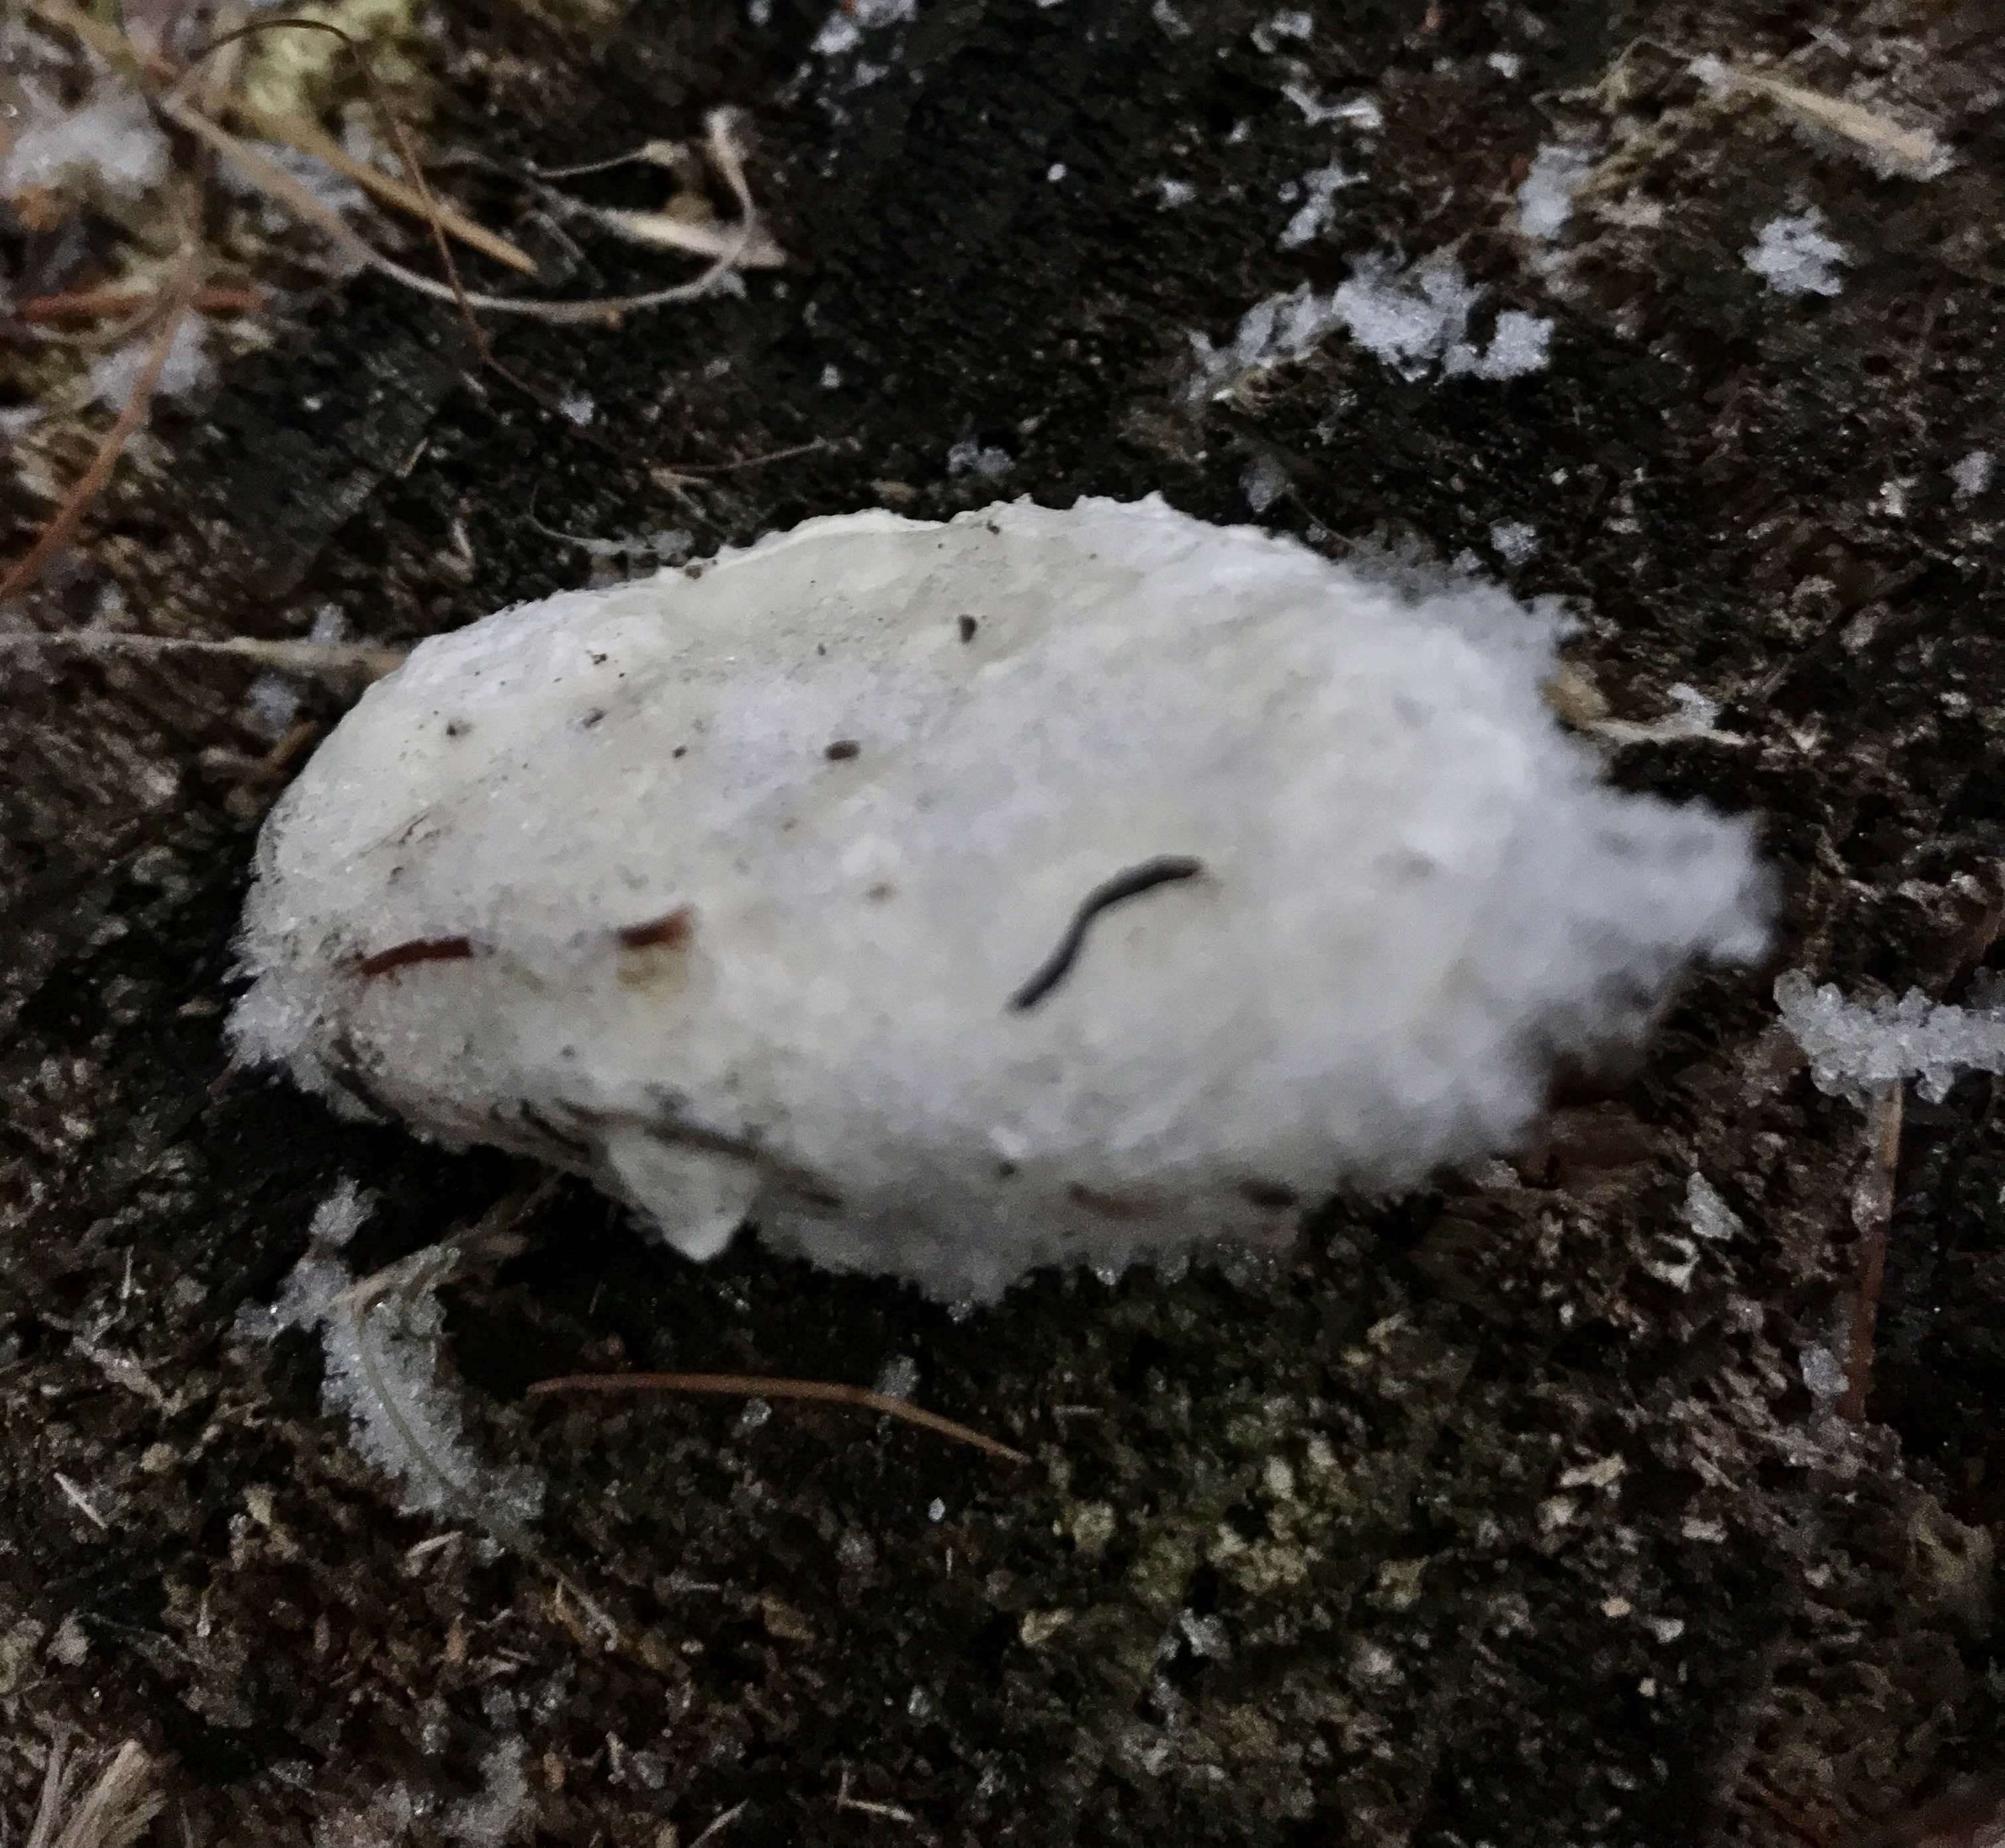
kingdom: Fungi
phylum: Basidiomycota
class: Agaricomycetes
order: Polyporales
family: Incrustoporiaceae
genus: Tyromyces
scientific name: Tyromyces lacteus
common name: mælkehvid kødporesvamp
